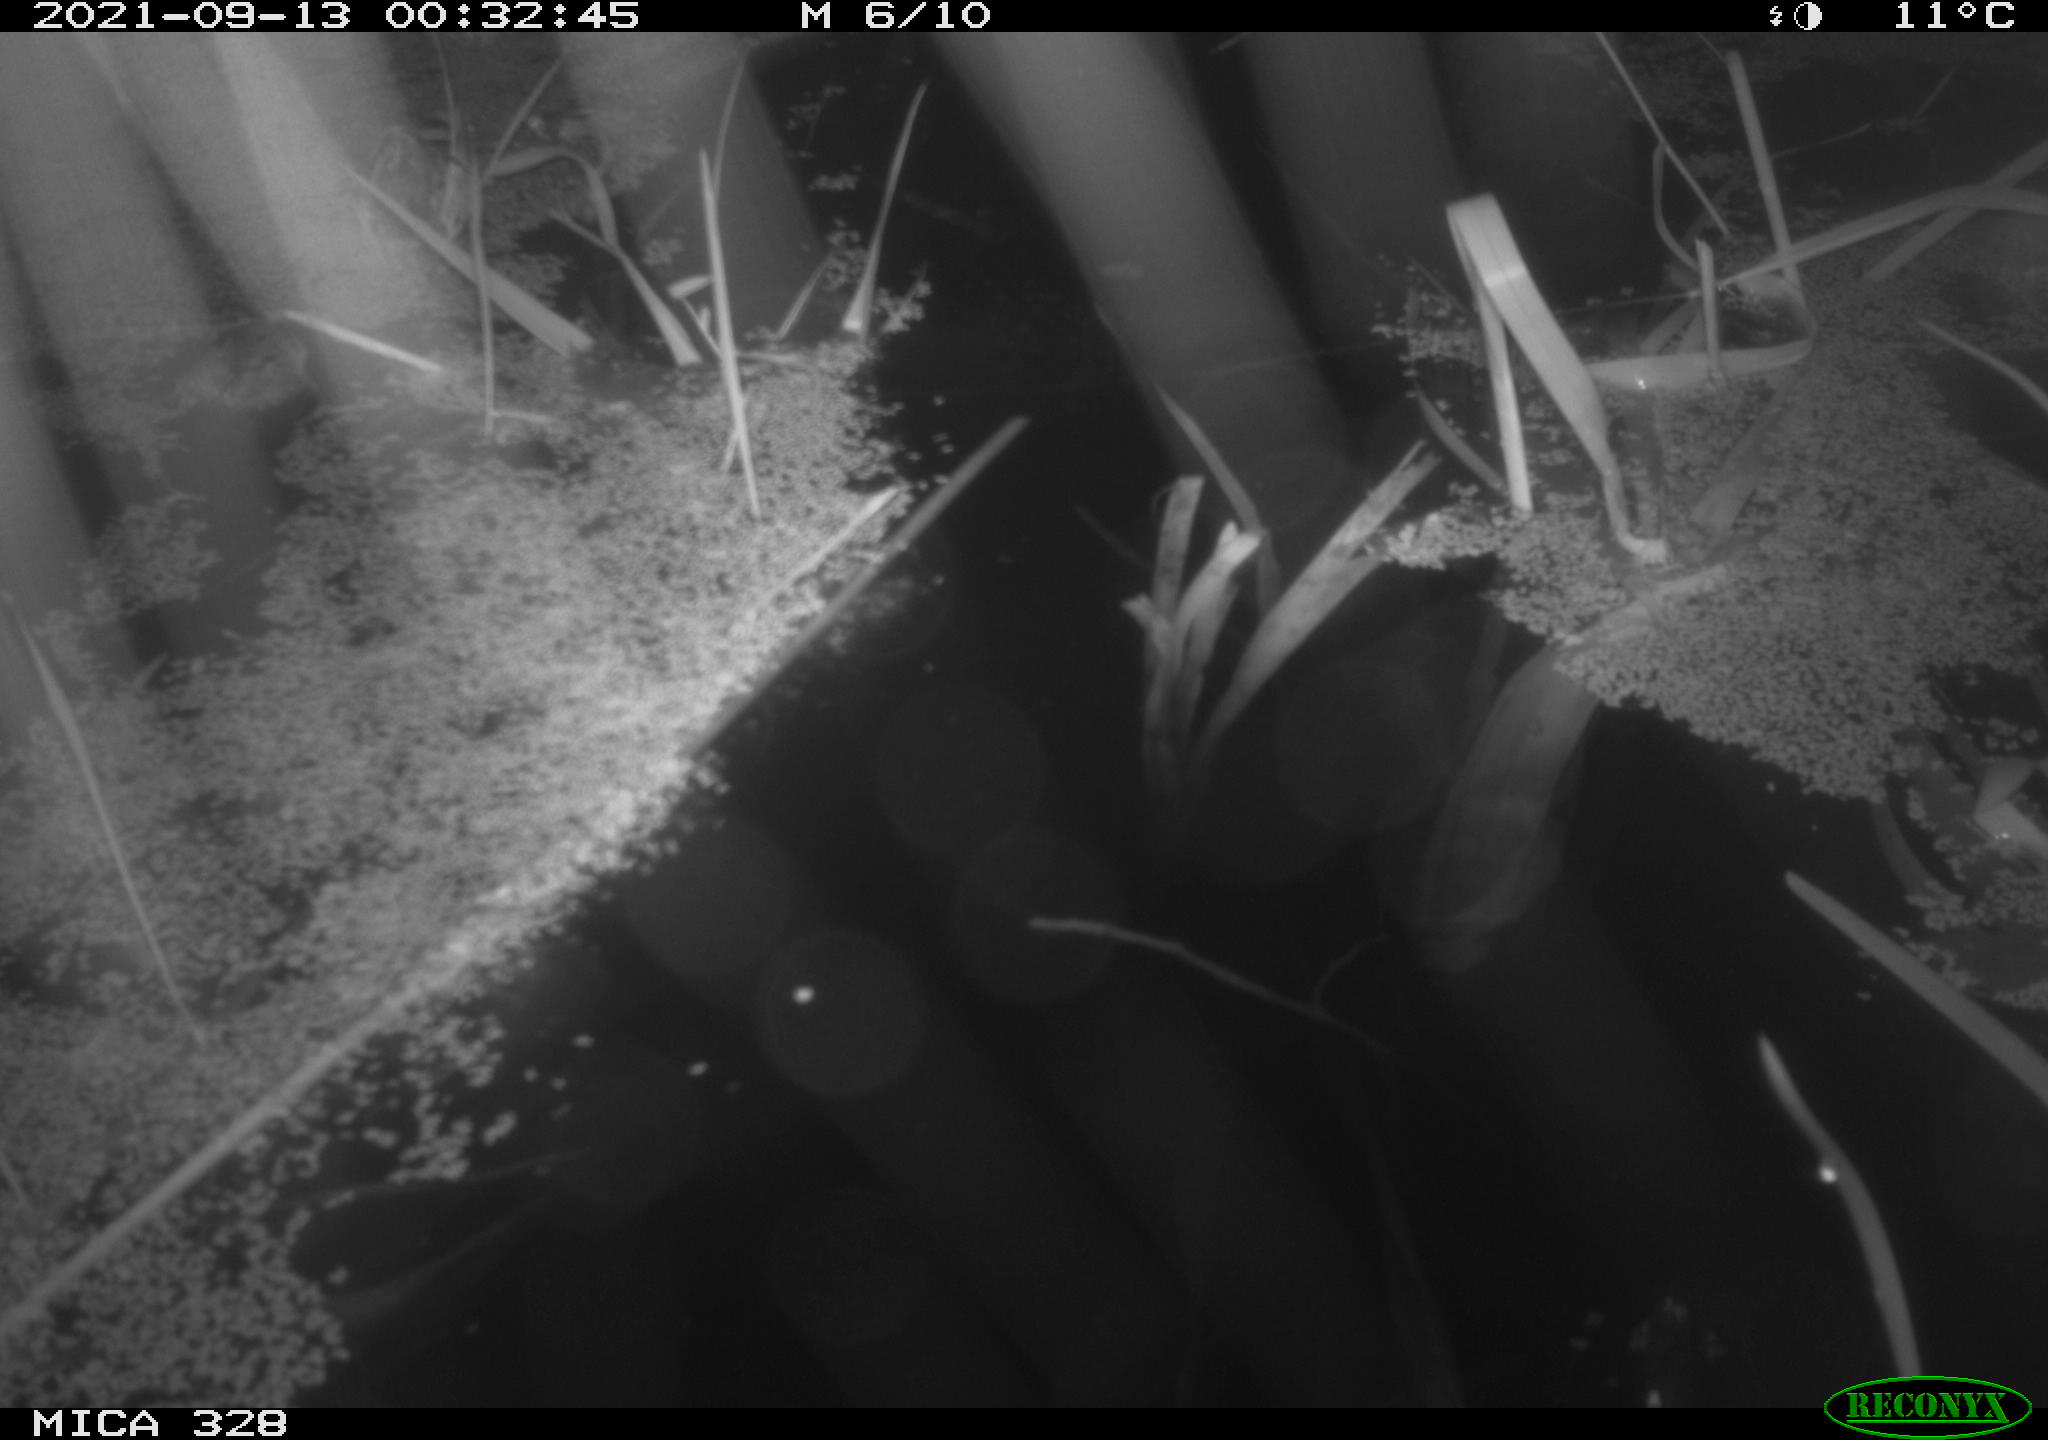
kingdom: Animalia
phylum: Chordata
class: Mammalia
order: Rodentia
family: Cricetidae
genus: Ondatra
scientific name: Ondatra zibethicus
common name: Muskrat
